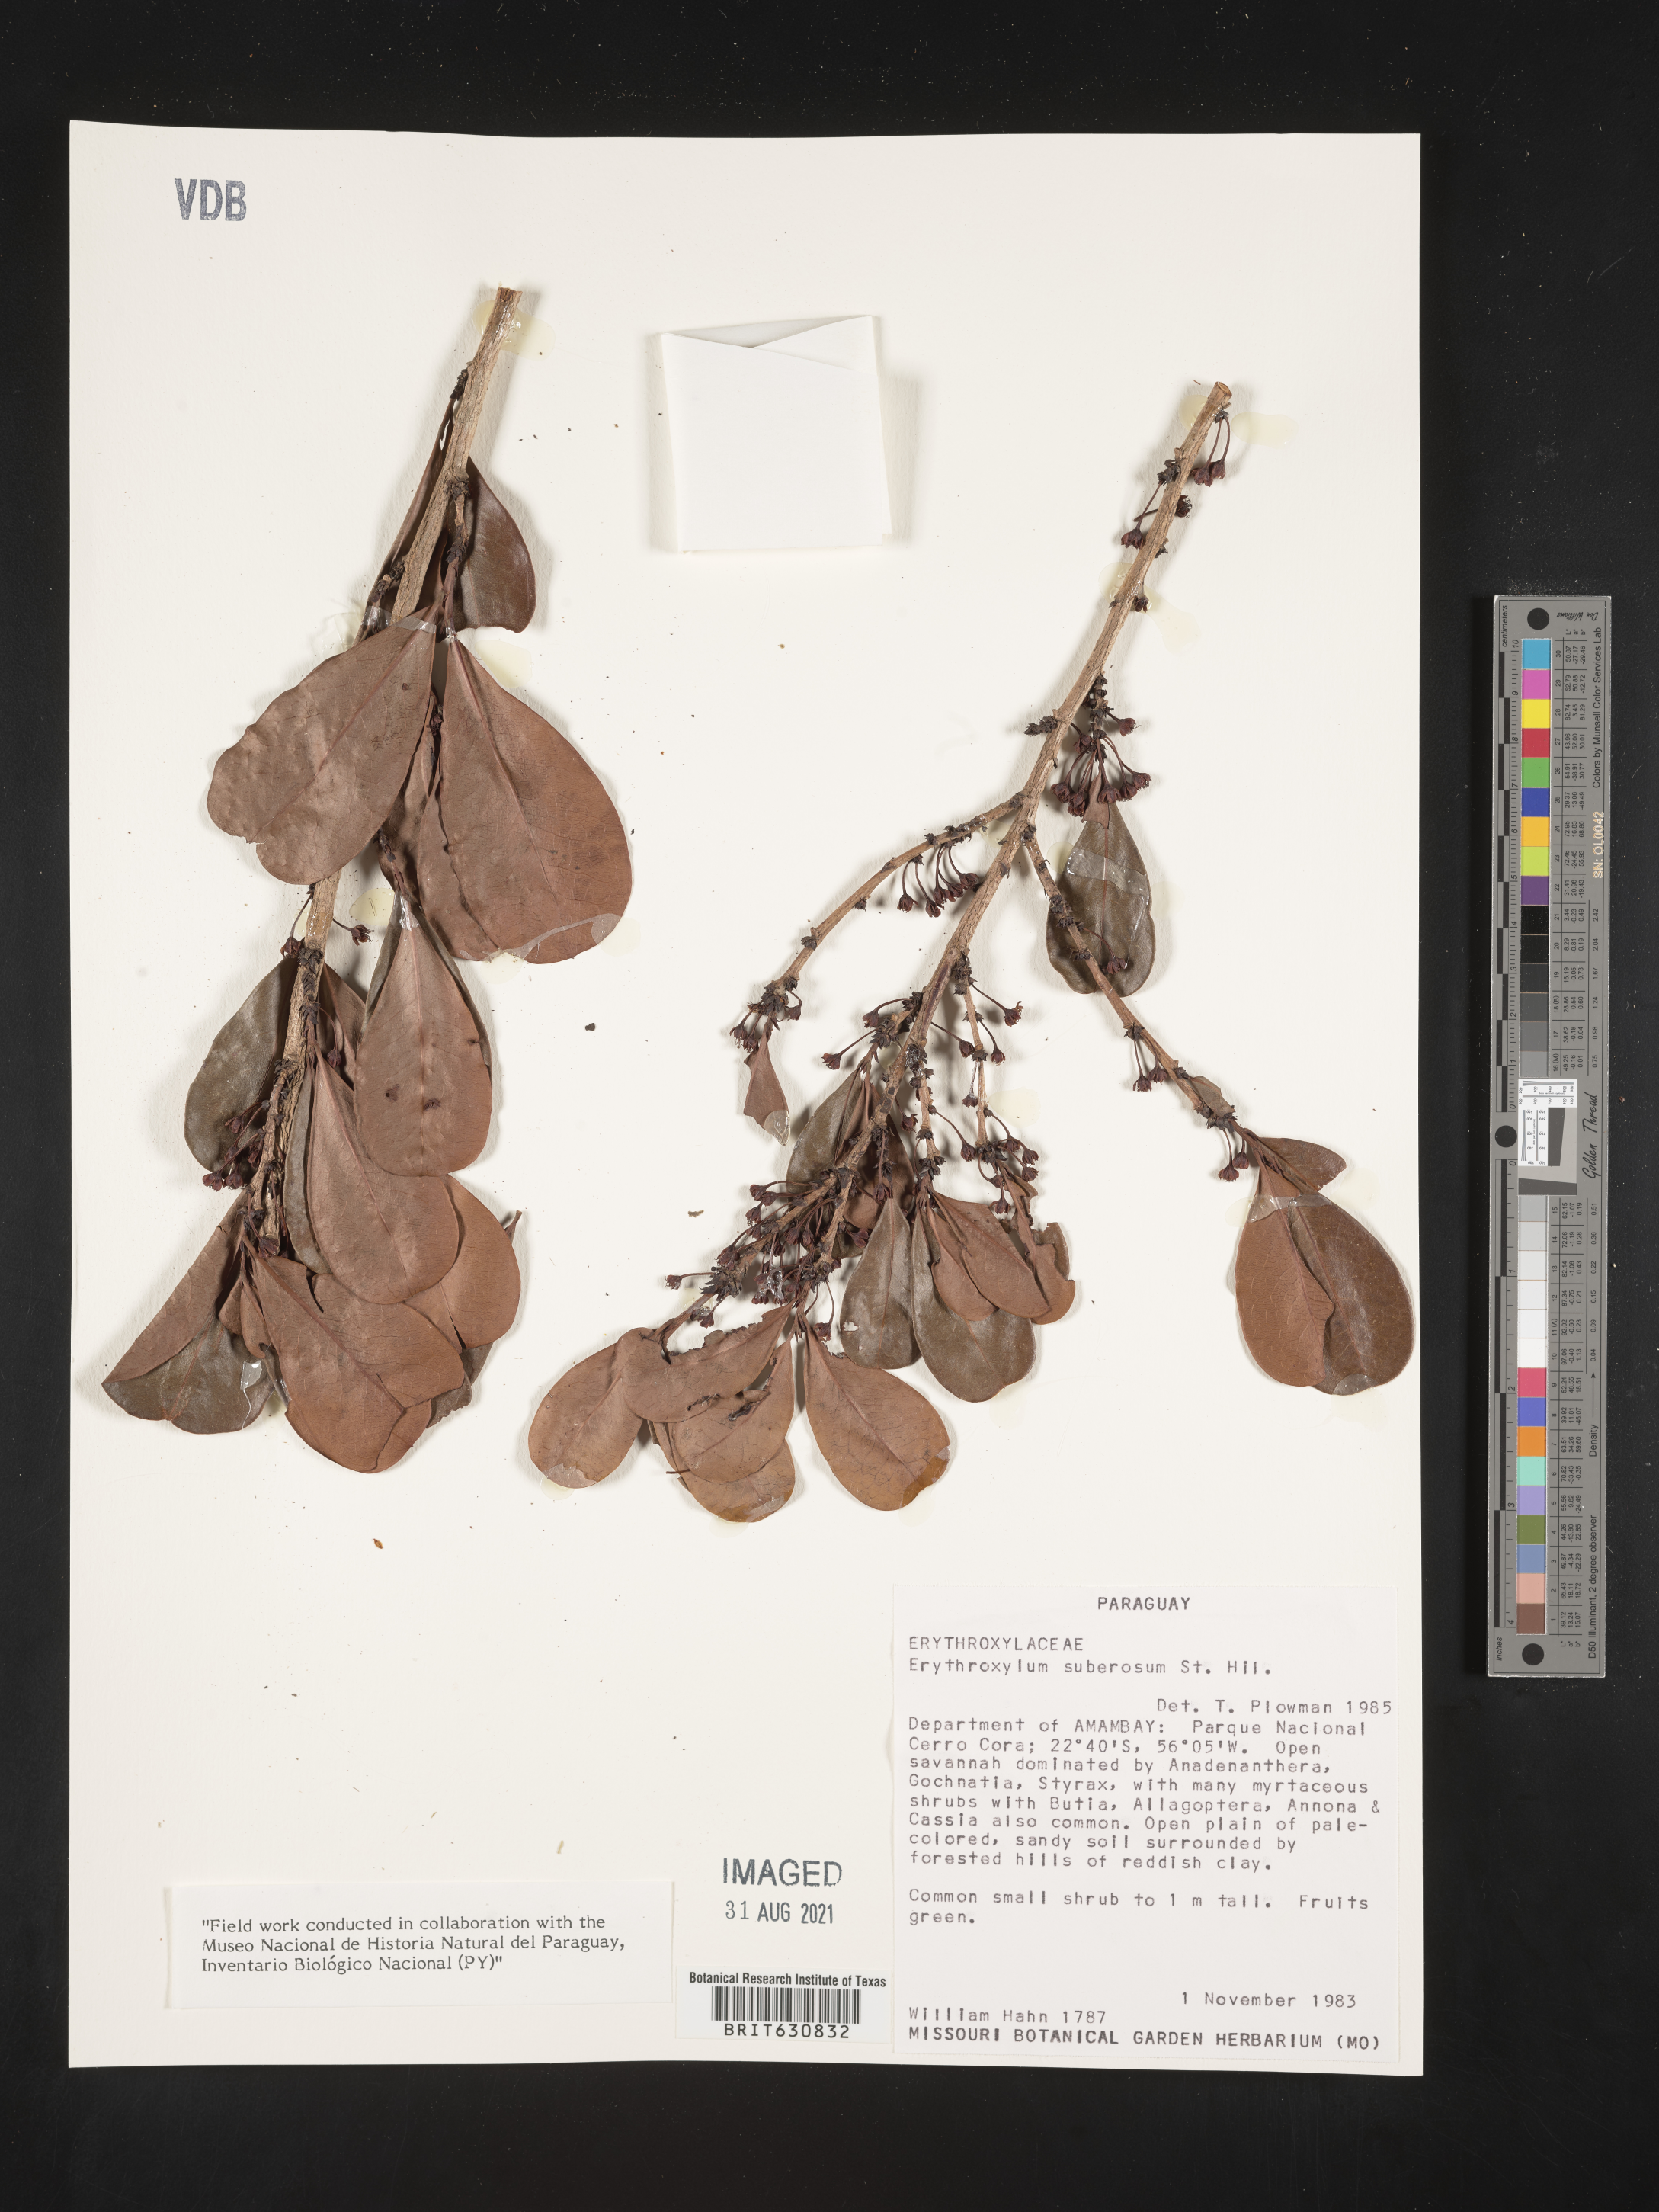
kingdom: Plantae
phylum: Tracheophyta
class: Magnoliopsida
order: Malpighiales
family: Erythroxylaceae
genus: Erythroxylum
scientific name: Erythroxylum
